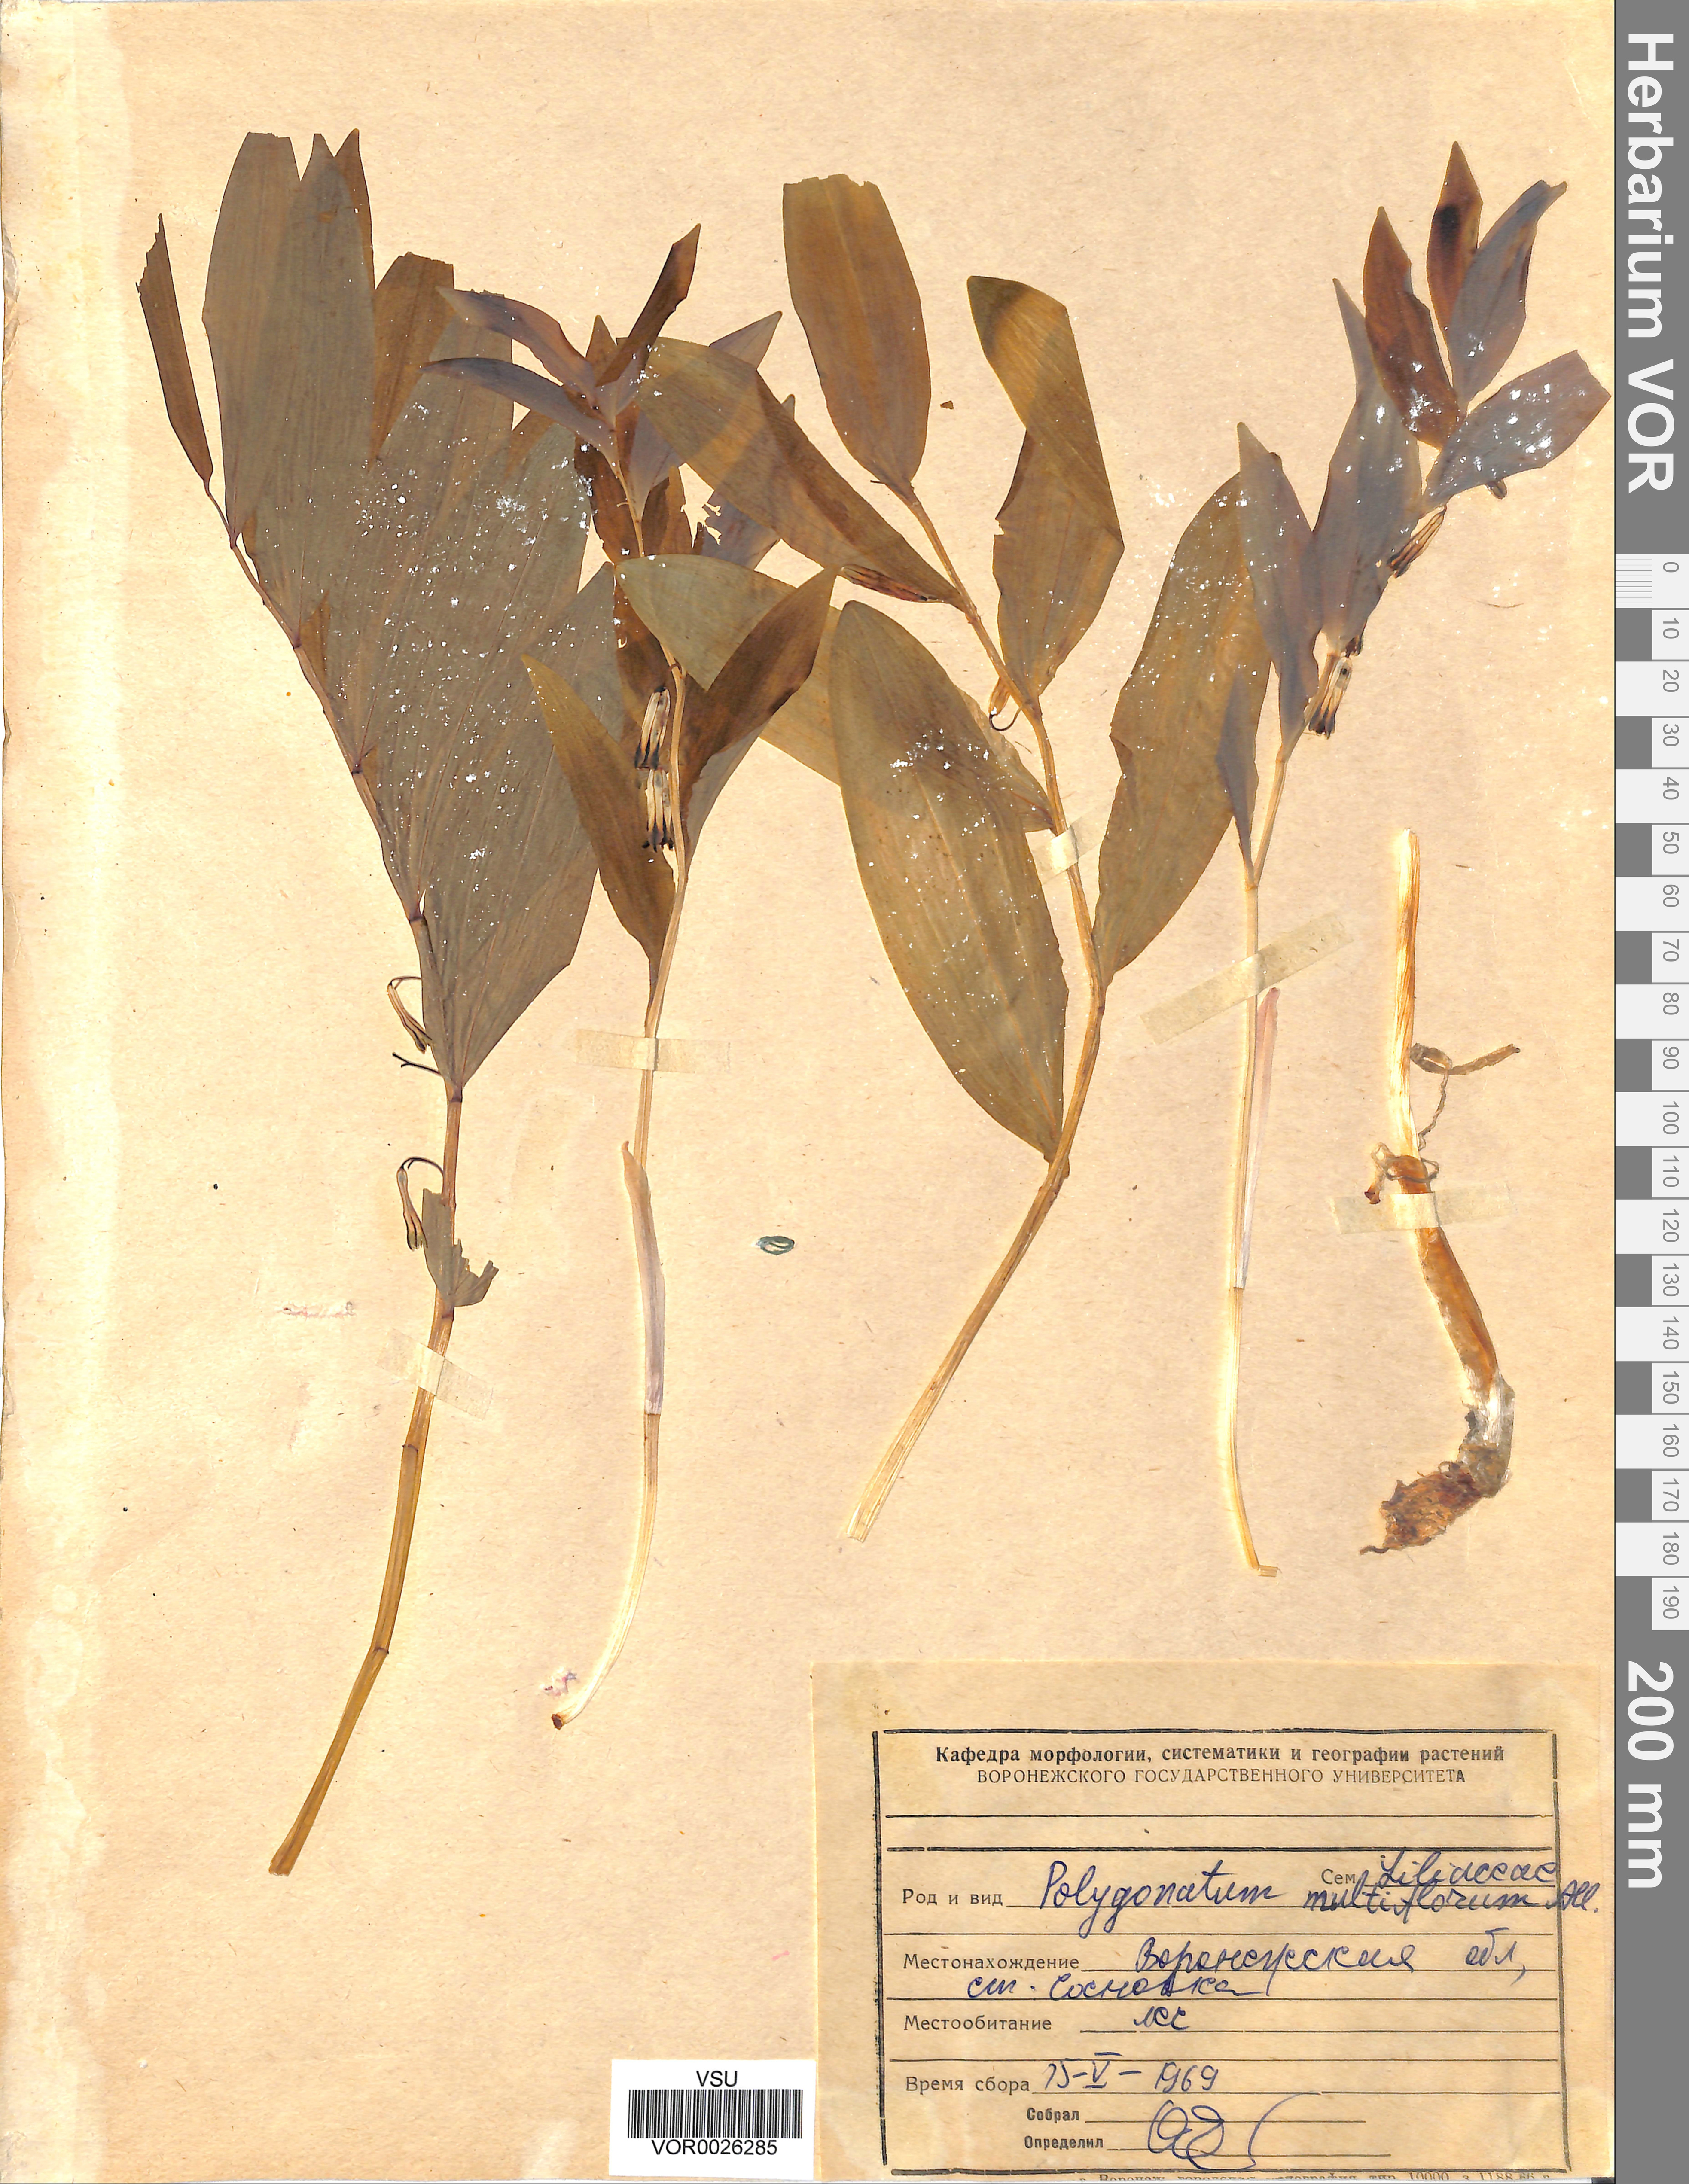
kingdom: Plantae
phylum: Tracheophyta
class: Liliopsida
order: Asparagales
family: Asparagaceae
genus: Polygonatum
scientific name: Polygonatum multiflorum
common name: Solomon's-seal
